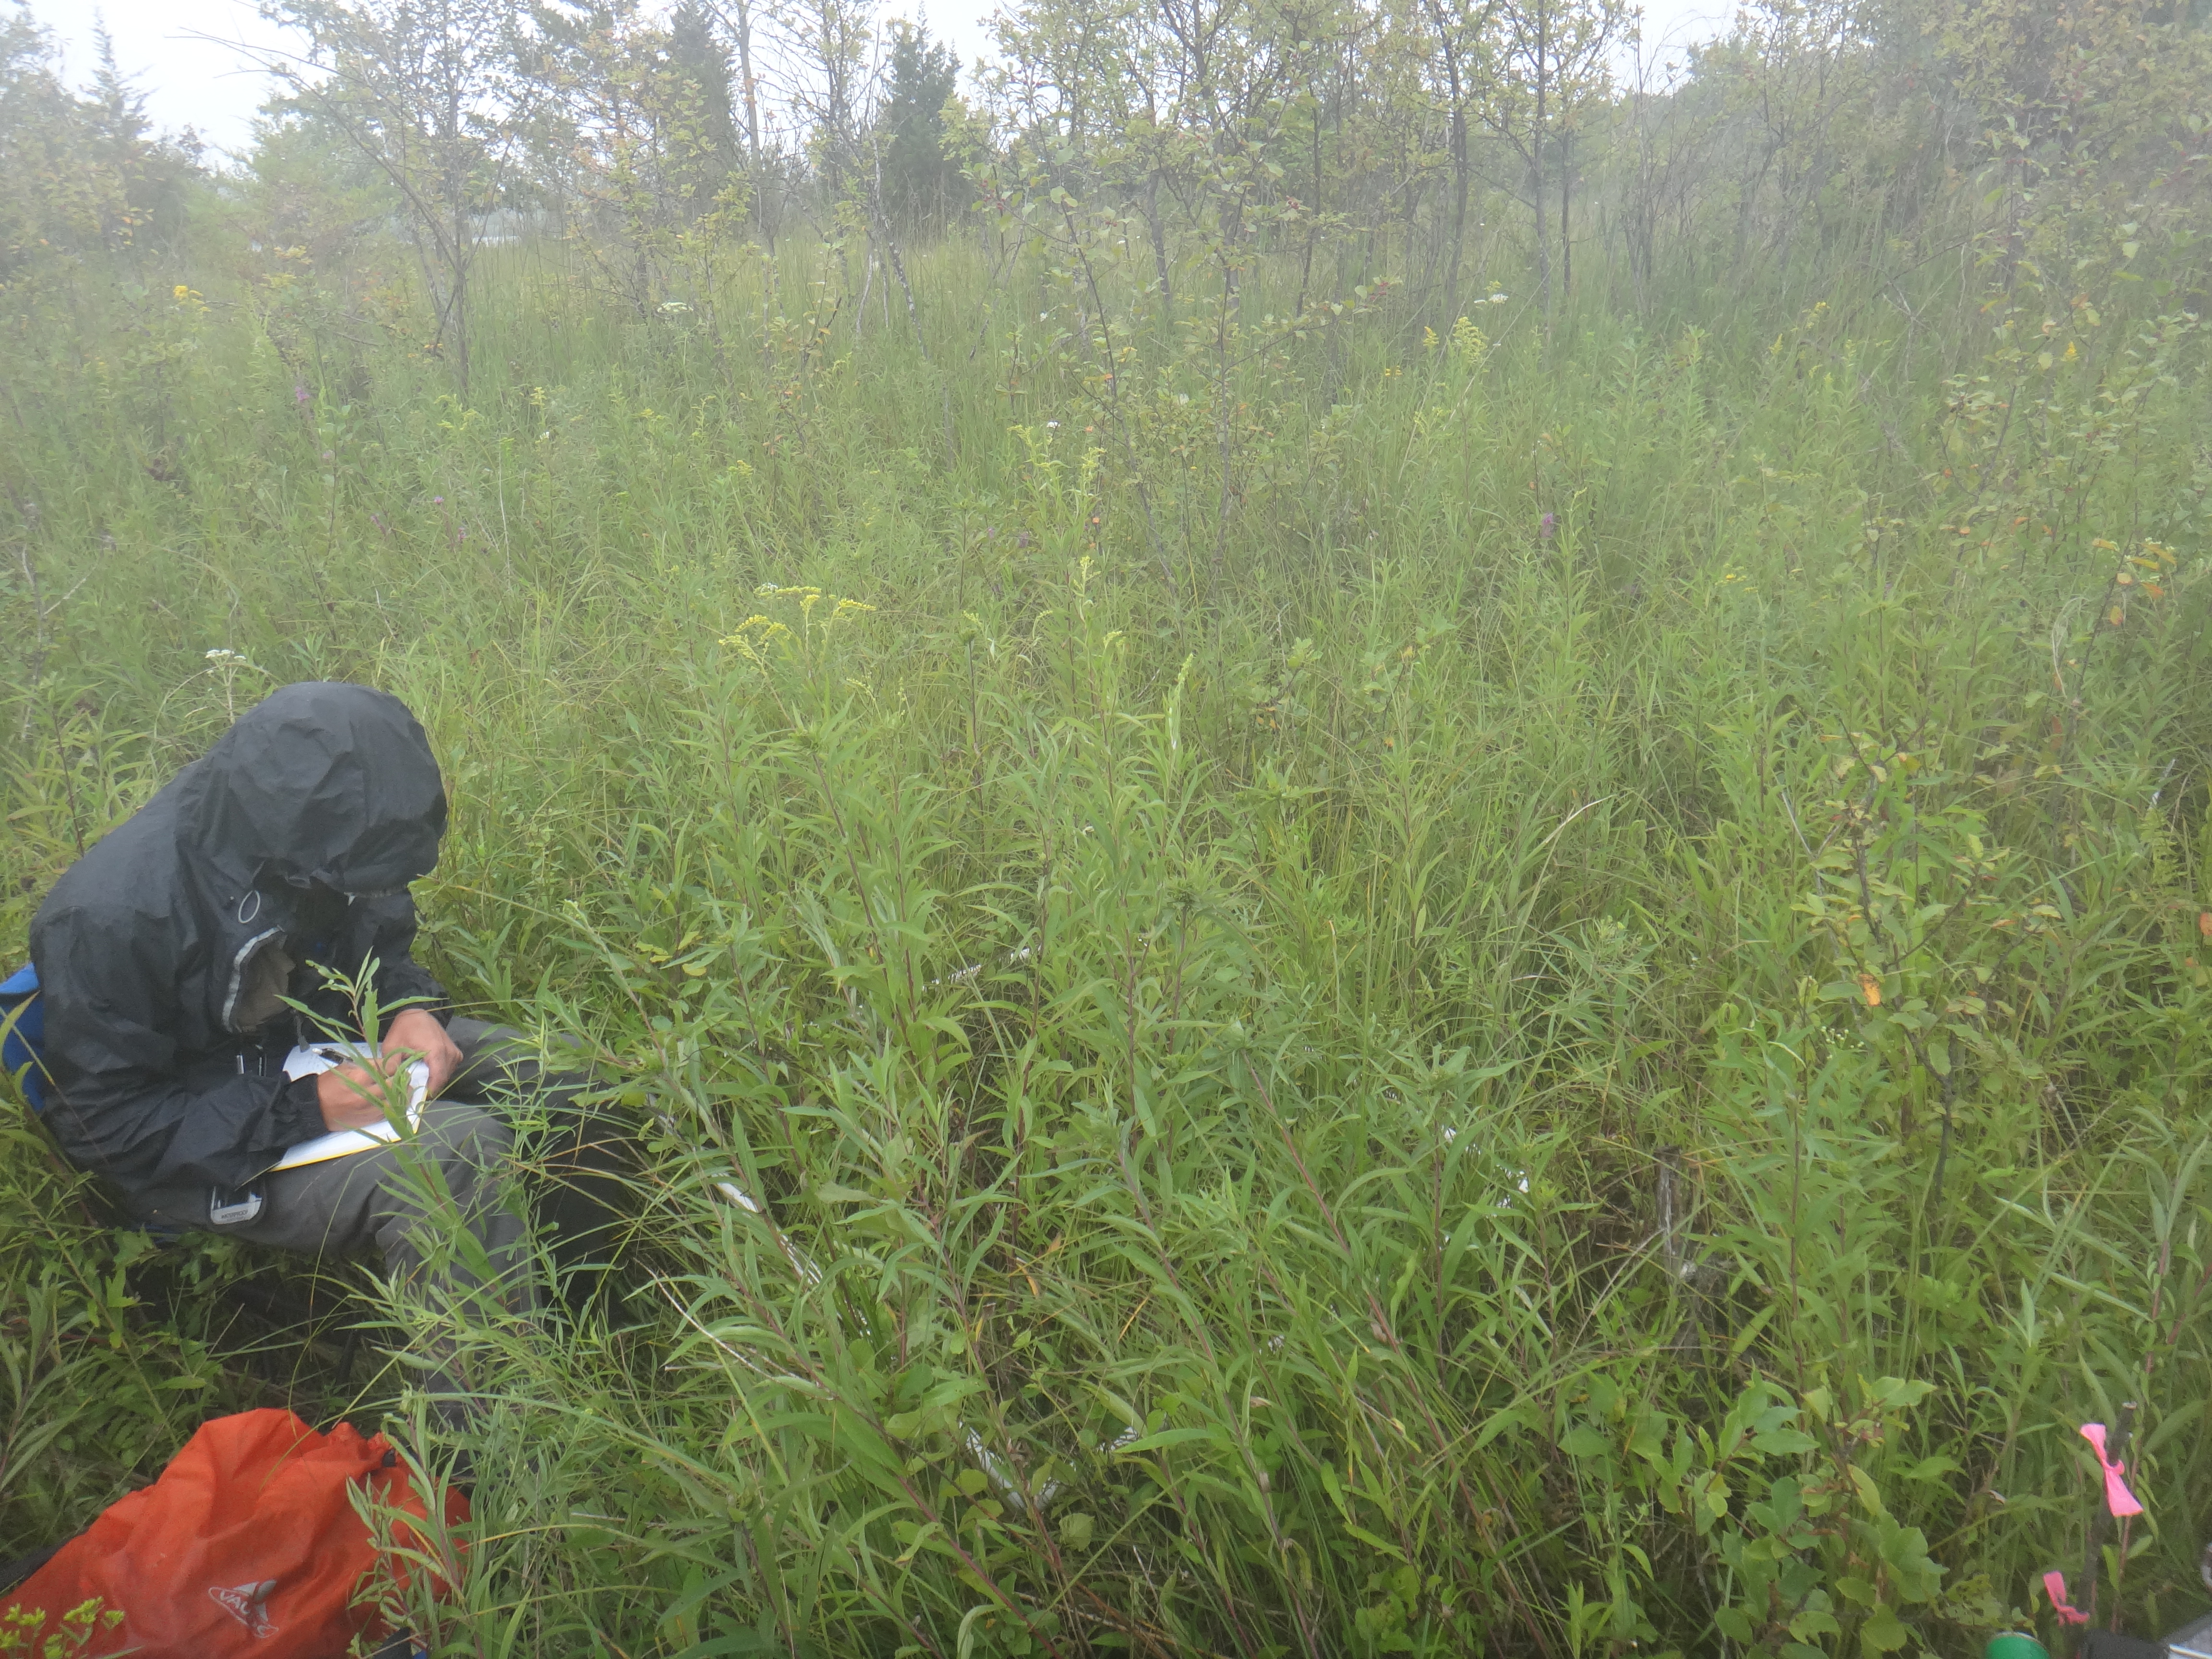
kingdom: Plantae
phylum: Tracheophyta
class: Magnoliopsida
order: Rosales
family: Rhamnaceae
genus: Frangula
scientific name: Frangula alnus
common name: Alder buckthorn
